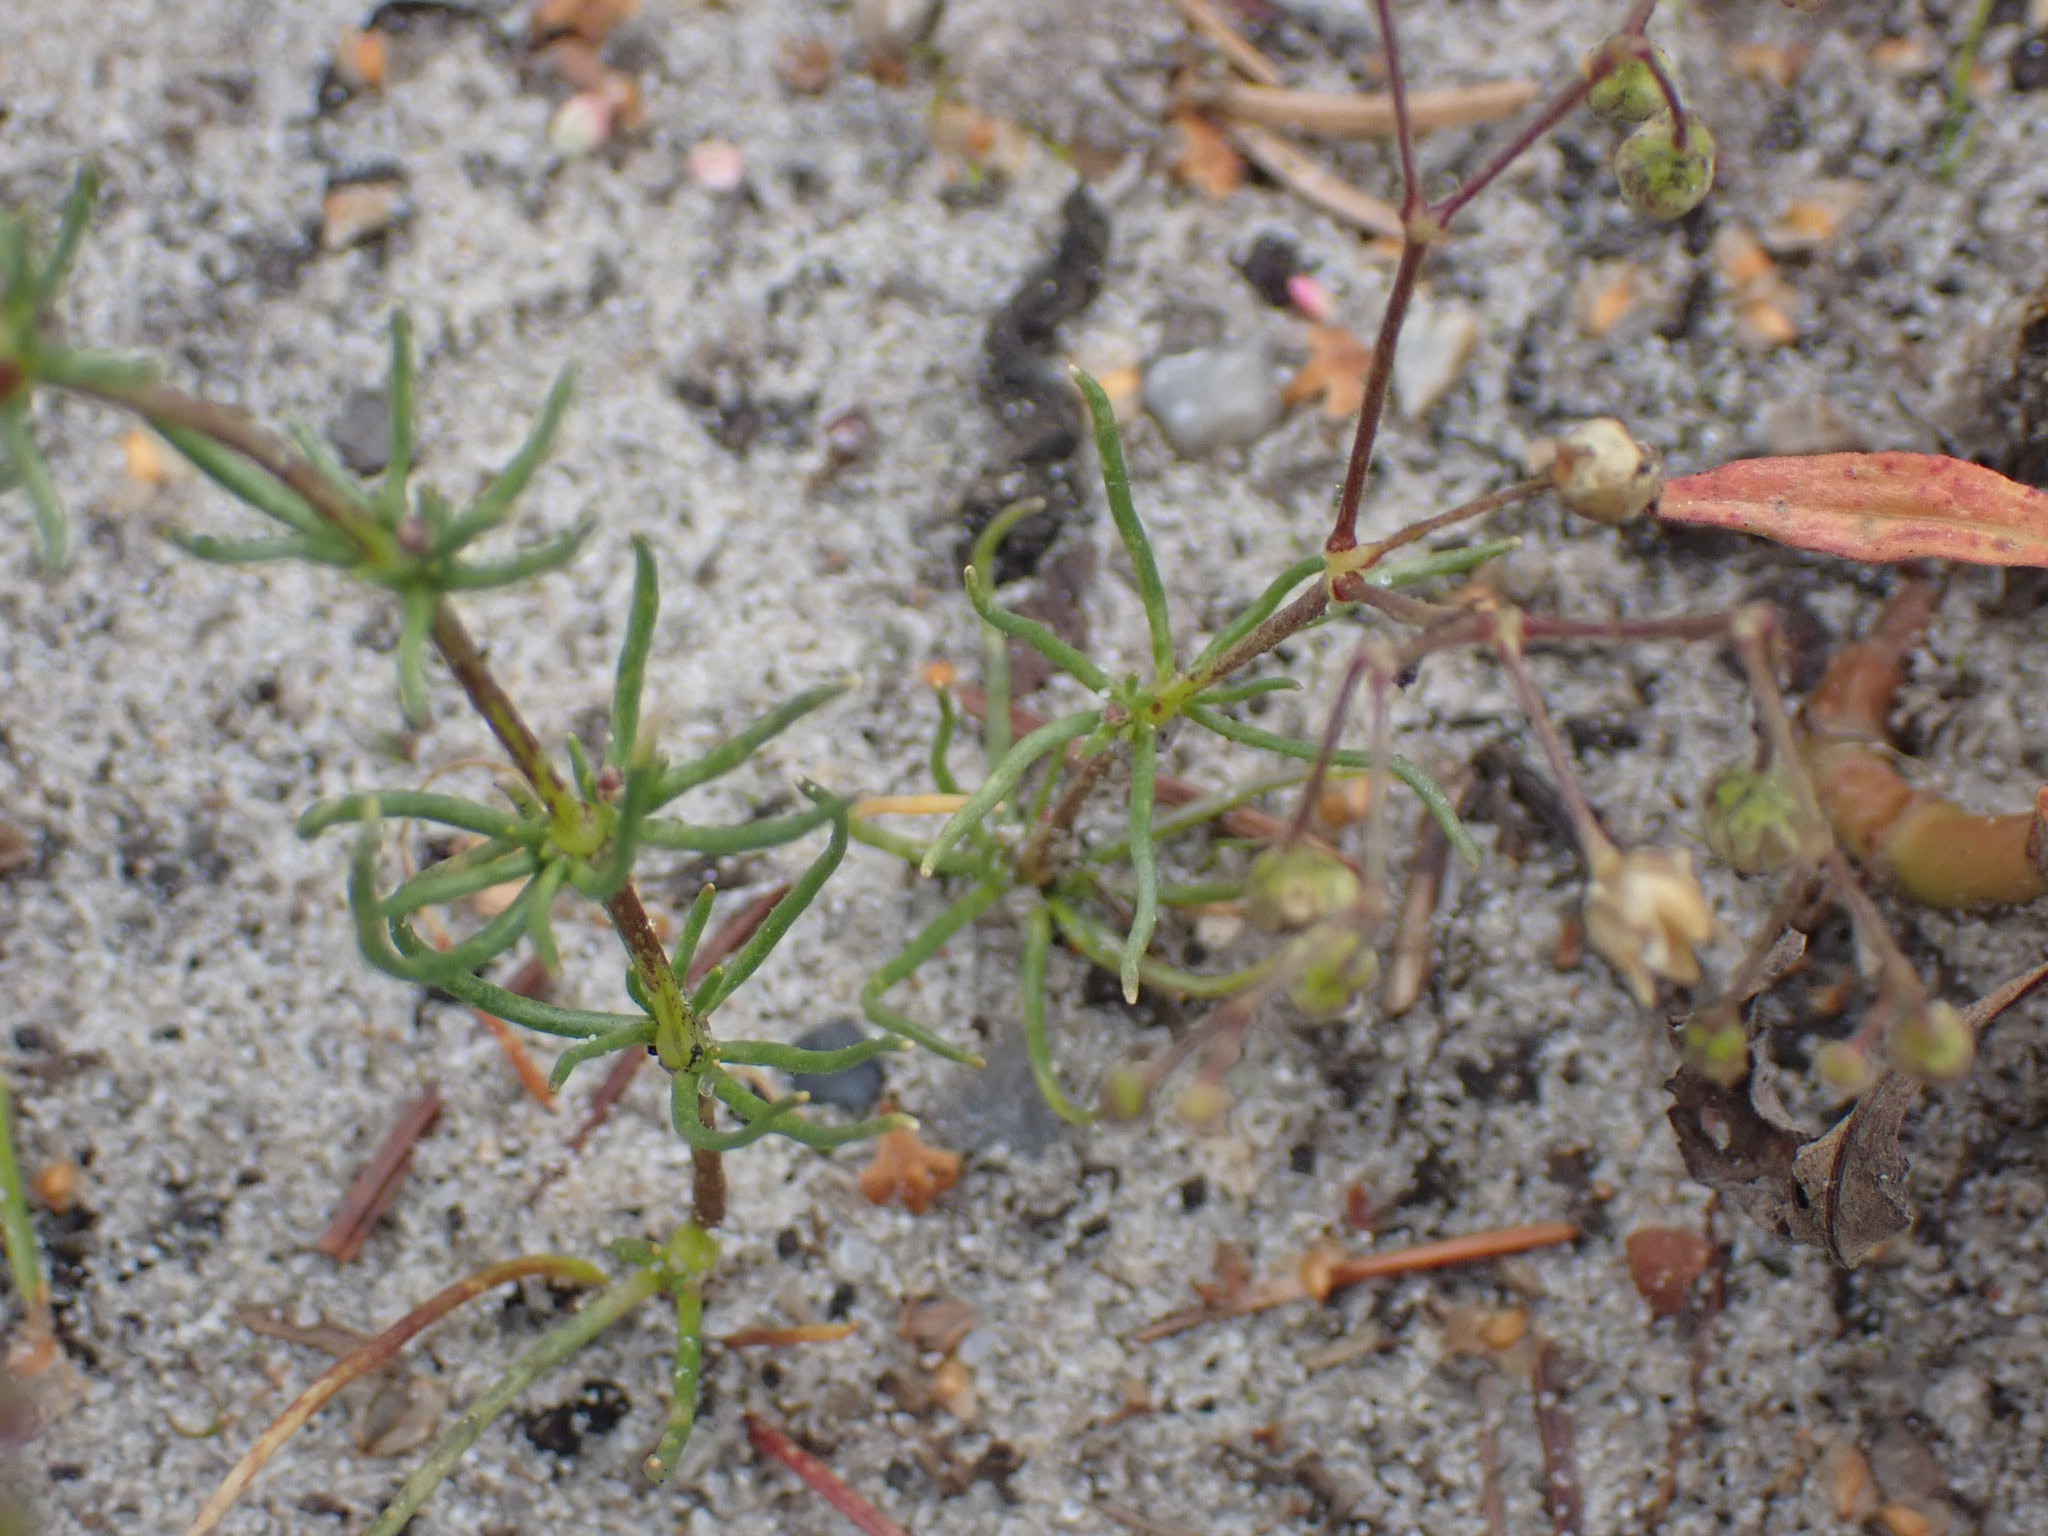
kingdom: Plantae
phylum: Tracheophyta
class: Magnoliopsida
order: Caryophyllales
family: Caryophyllaceae
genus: Spergula
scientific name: Spergula arvensis
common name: Almindelig spergel
